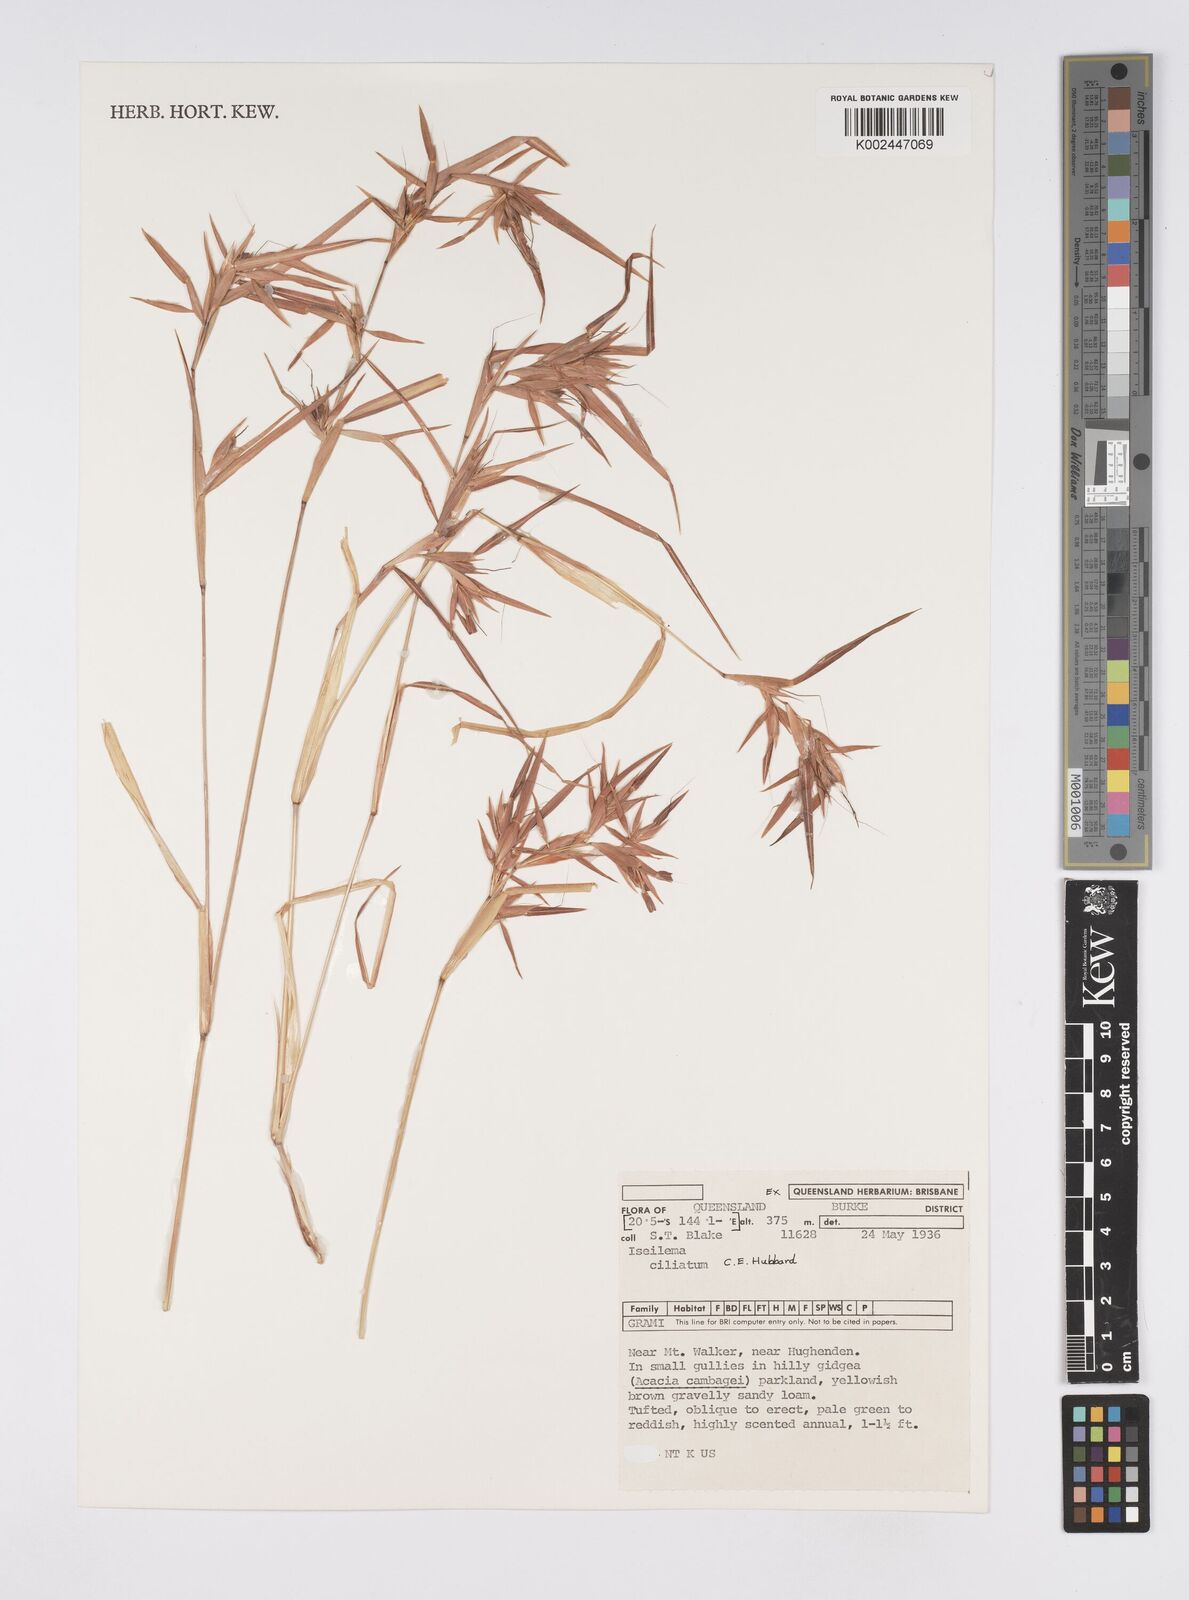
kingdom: Plantae
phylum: Tracheophyta
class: Liliopsida
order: Poales
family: Poaceae
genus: Iseilema
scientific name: Iseilema ciliatum
